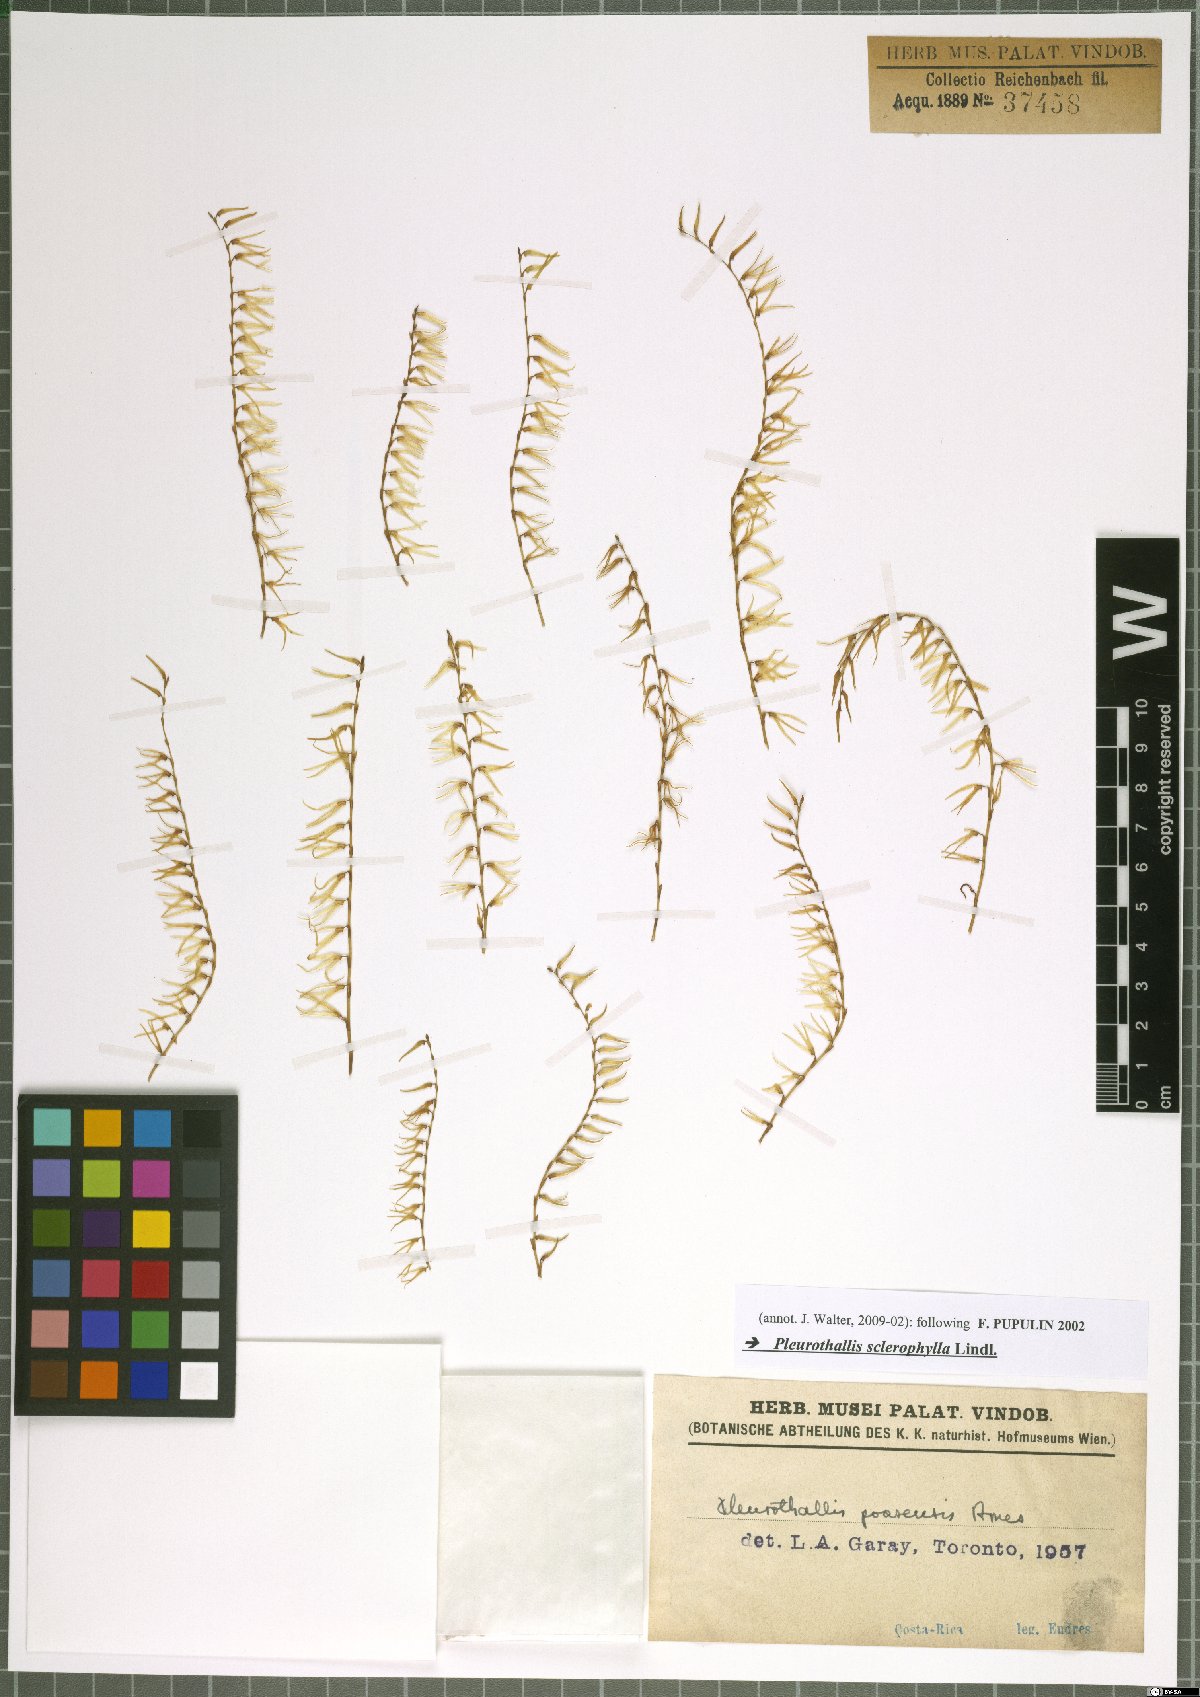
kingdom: Plantae
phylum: Tracheophyta
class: Liliopsida
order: Asparagales
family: Orchidaceae
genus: Stelis
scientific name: Stelis sclerophylla
